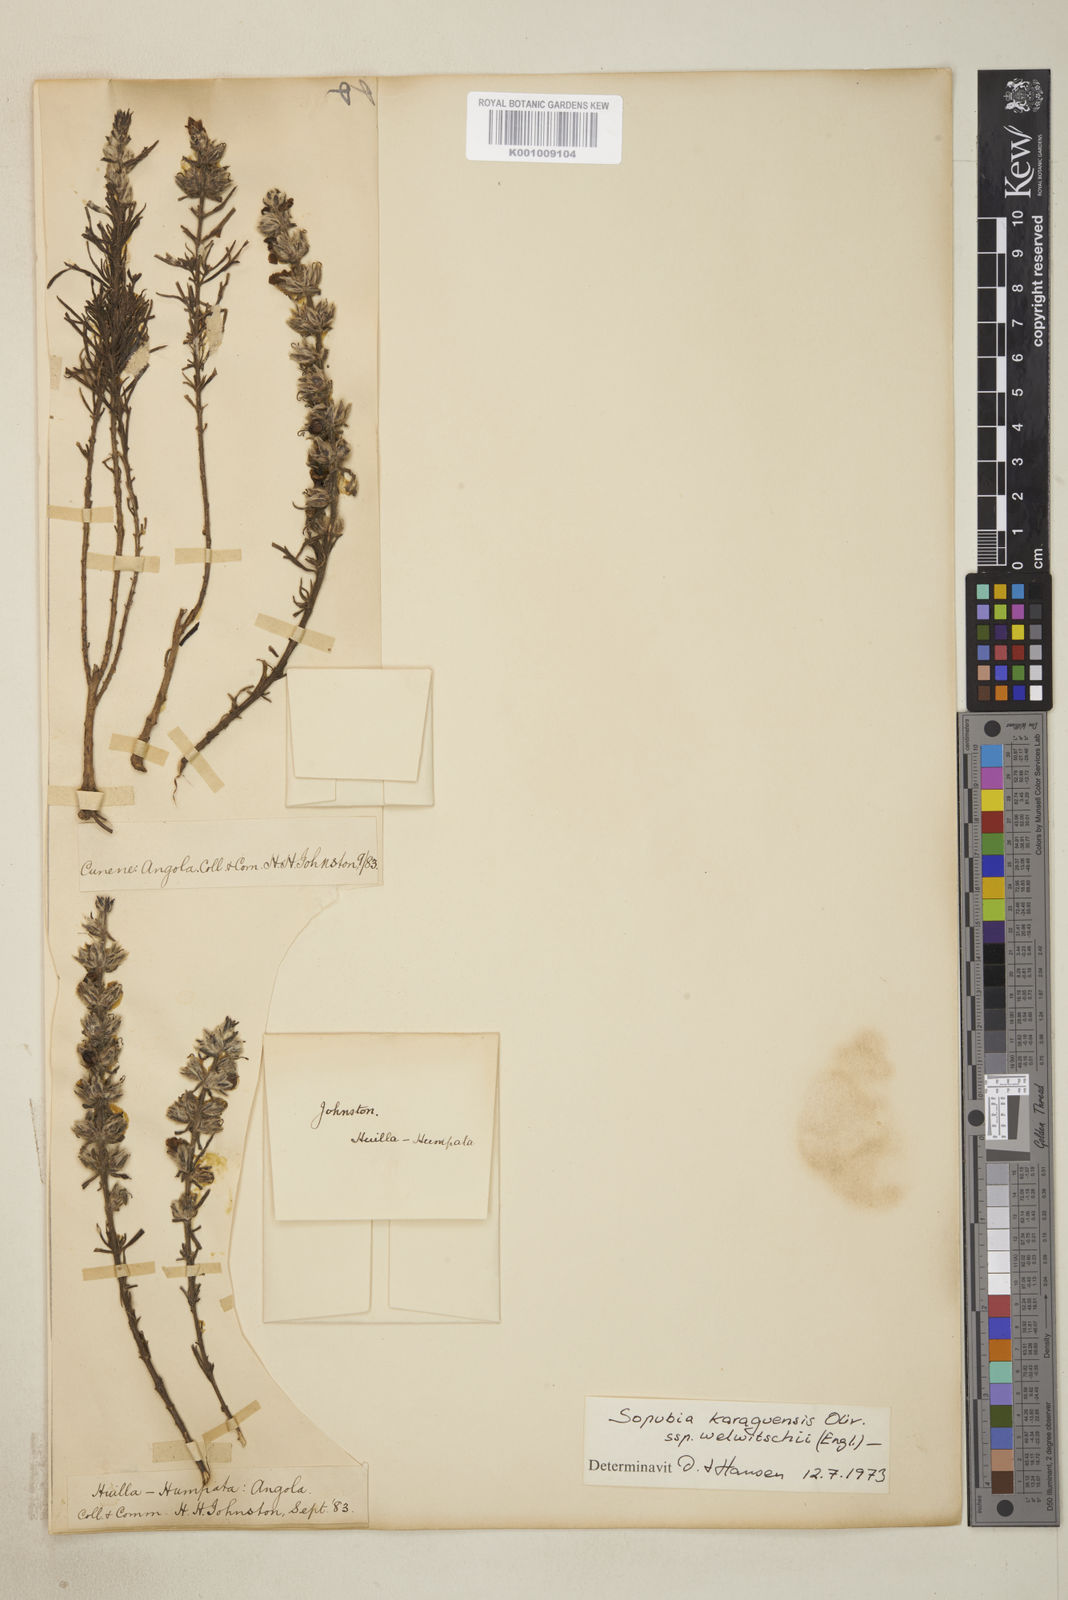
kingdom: Plantae
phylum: Tracheophyta
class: Magnoliopsida
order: Lamiales
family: Orobanchaceae
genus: Sopubia
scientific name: Sopubia karaguensis
